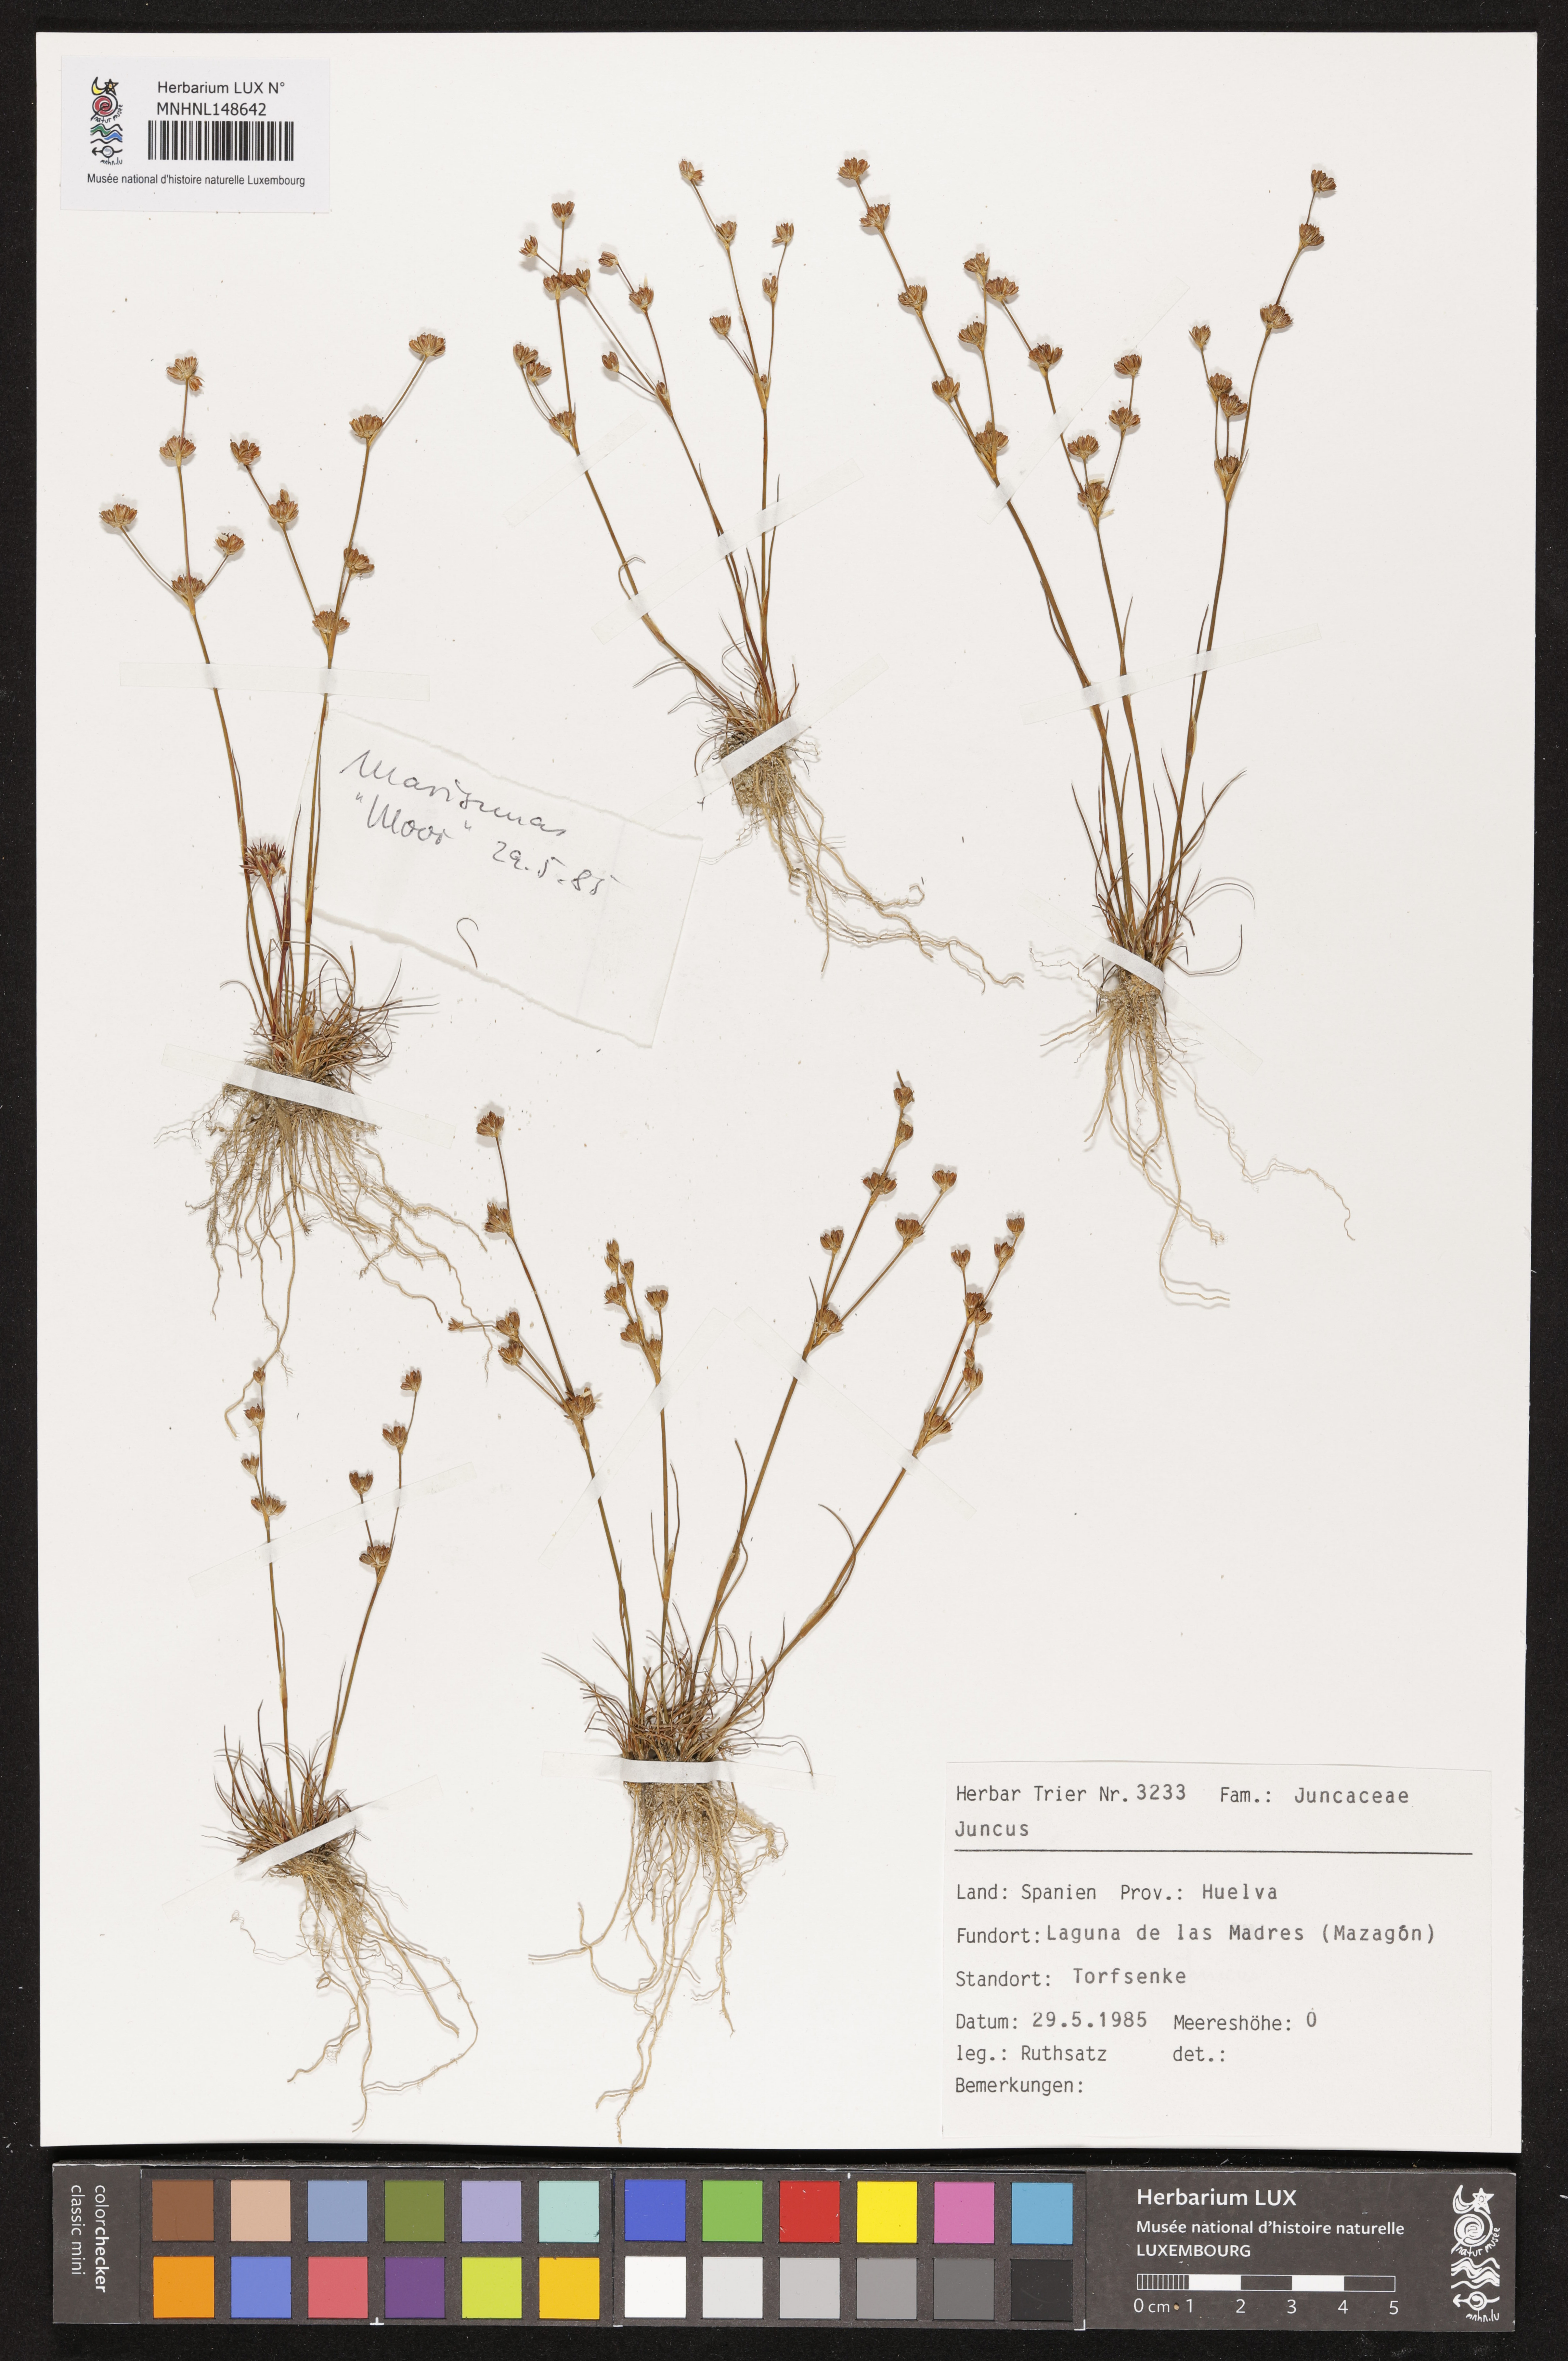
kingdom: Plantae
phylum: Tracheophyta
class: Liliopsida
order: Poales
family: Juncaceae
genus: Juncus
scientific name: Juncus
